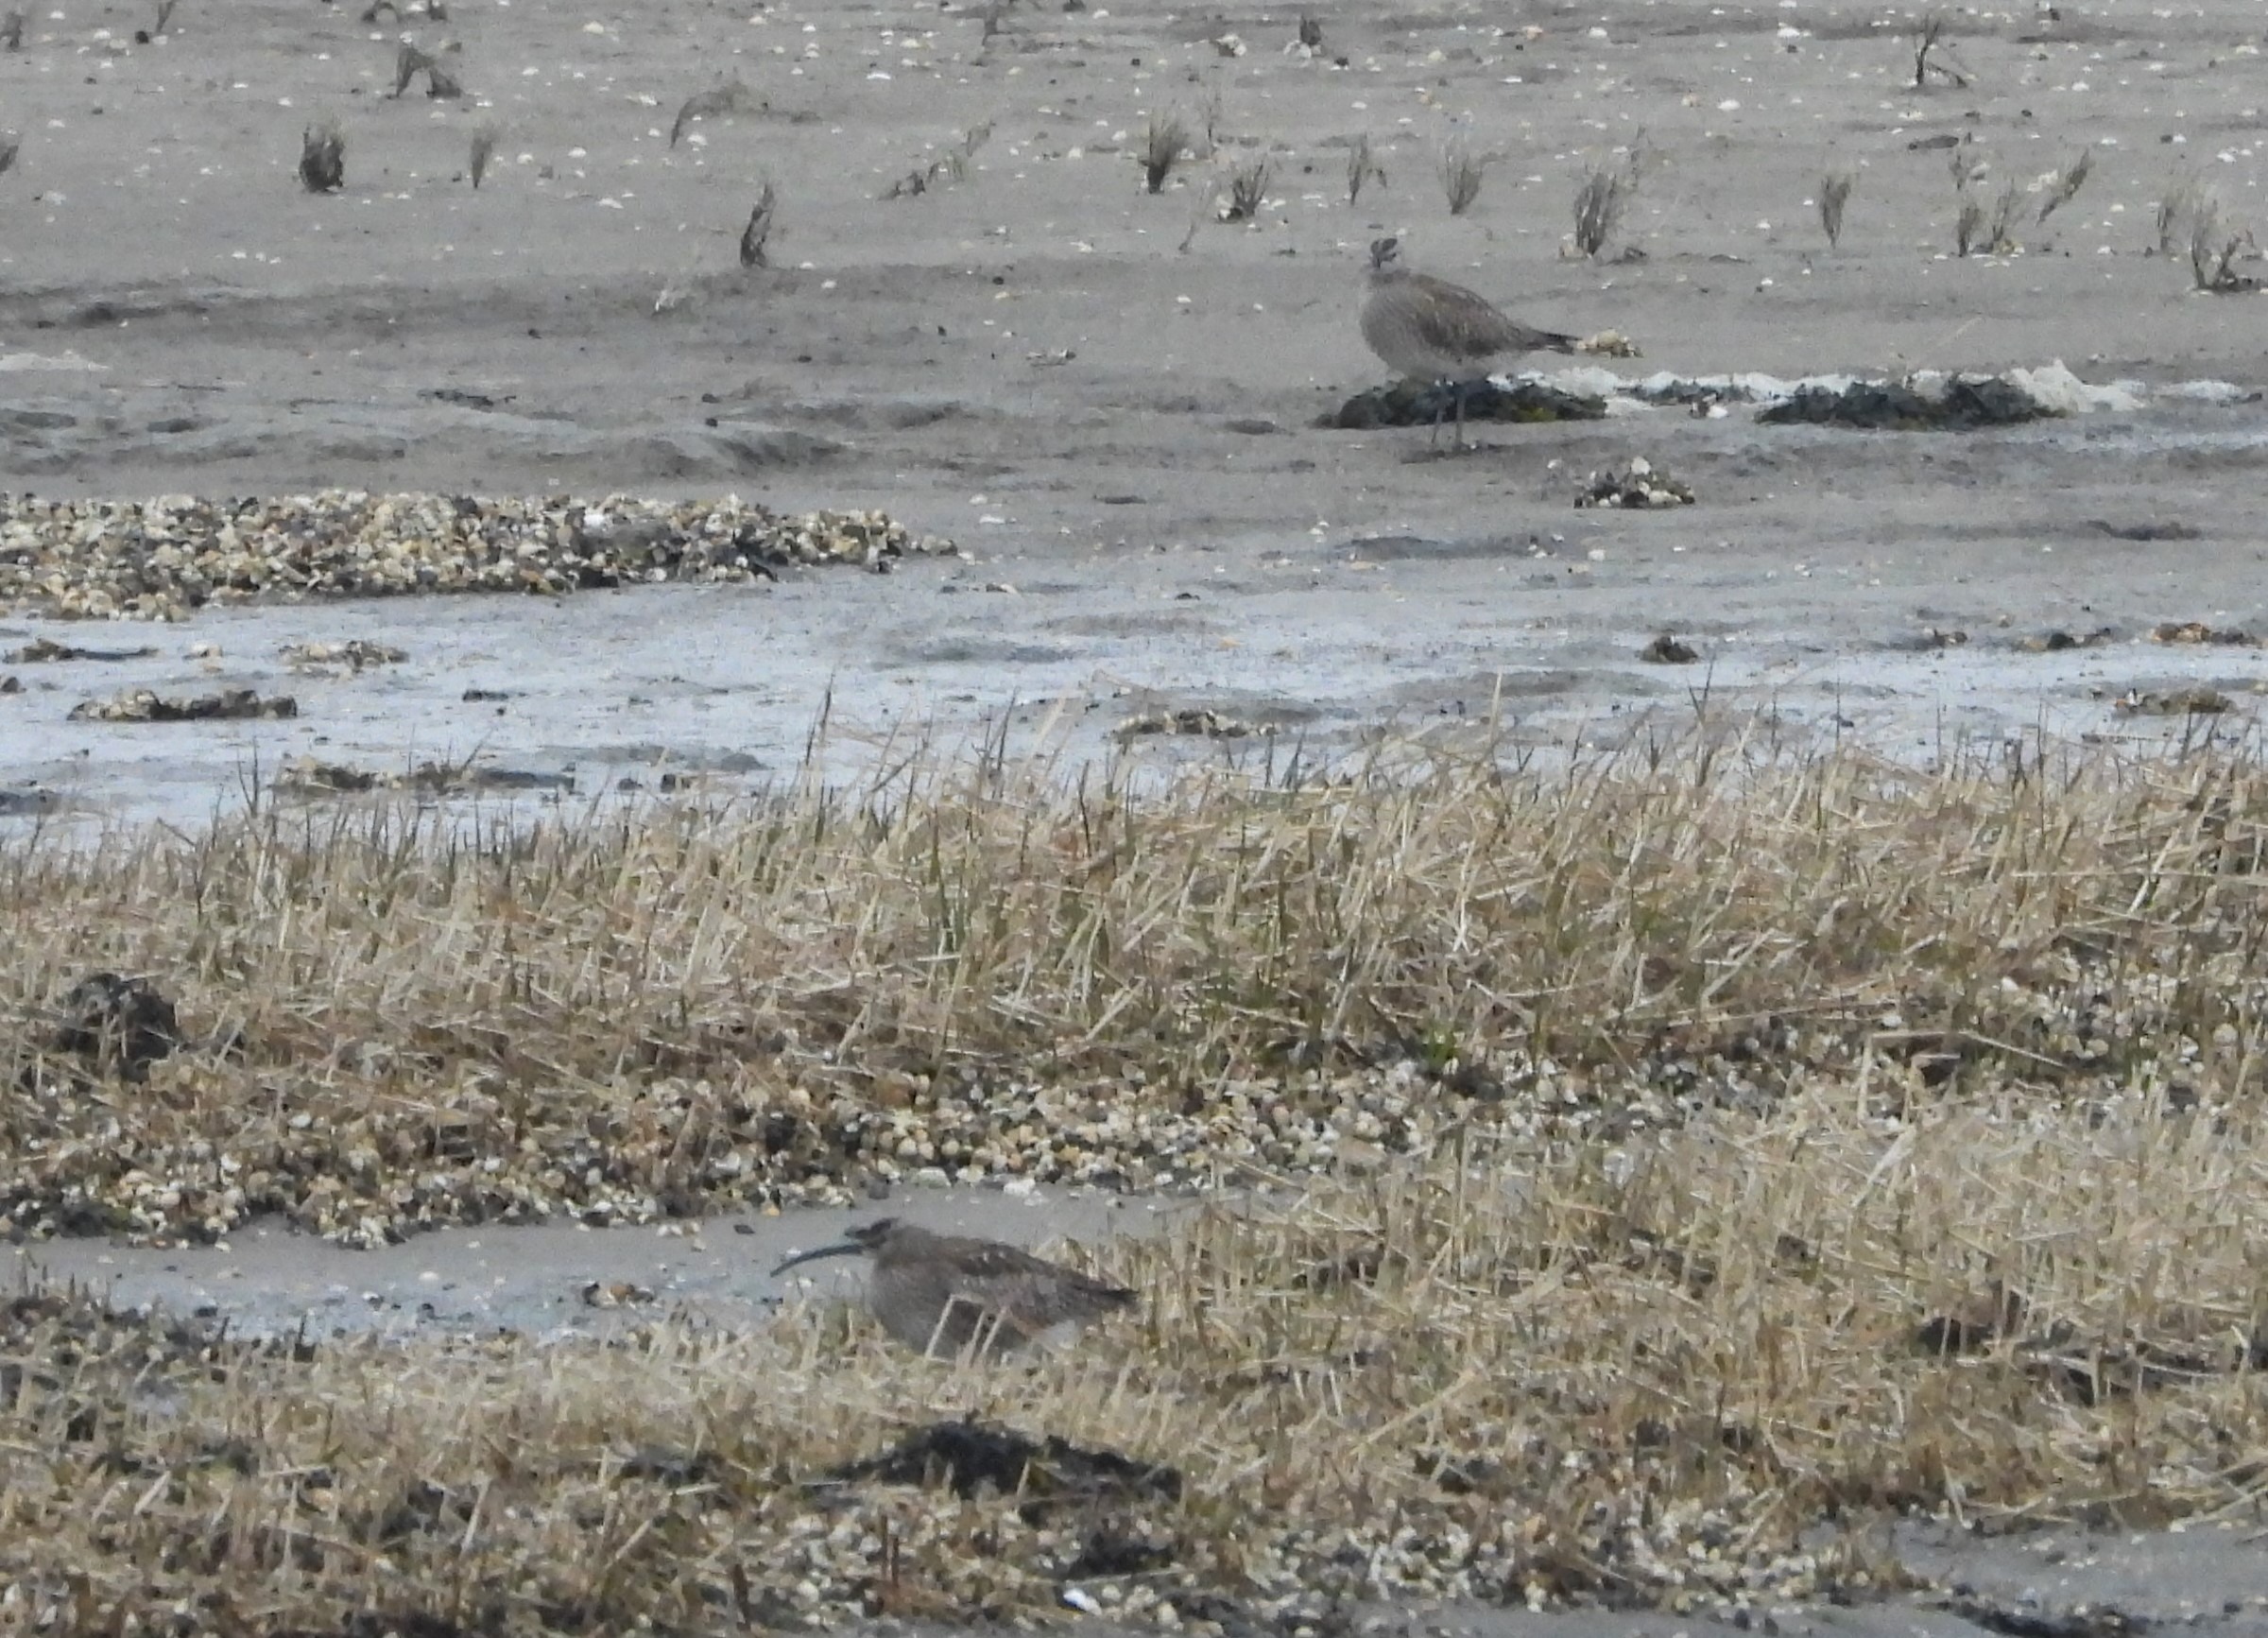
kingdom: Animalia
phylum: Chordata
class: Aves
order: Charadriiformes
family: Scolopacidae
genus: Numenius
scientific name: Numenius phaeopus
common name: Småspove
